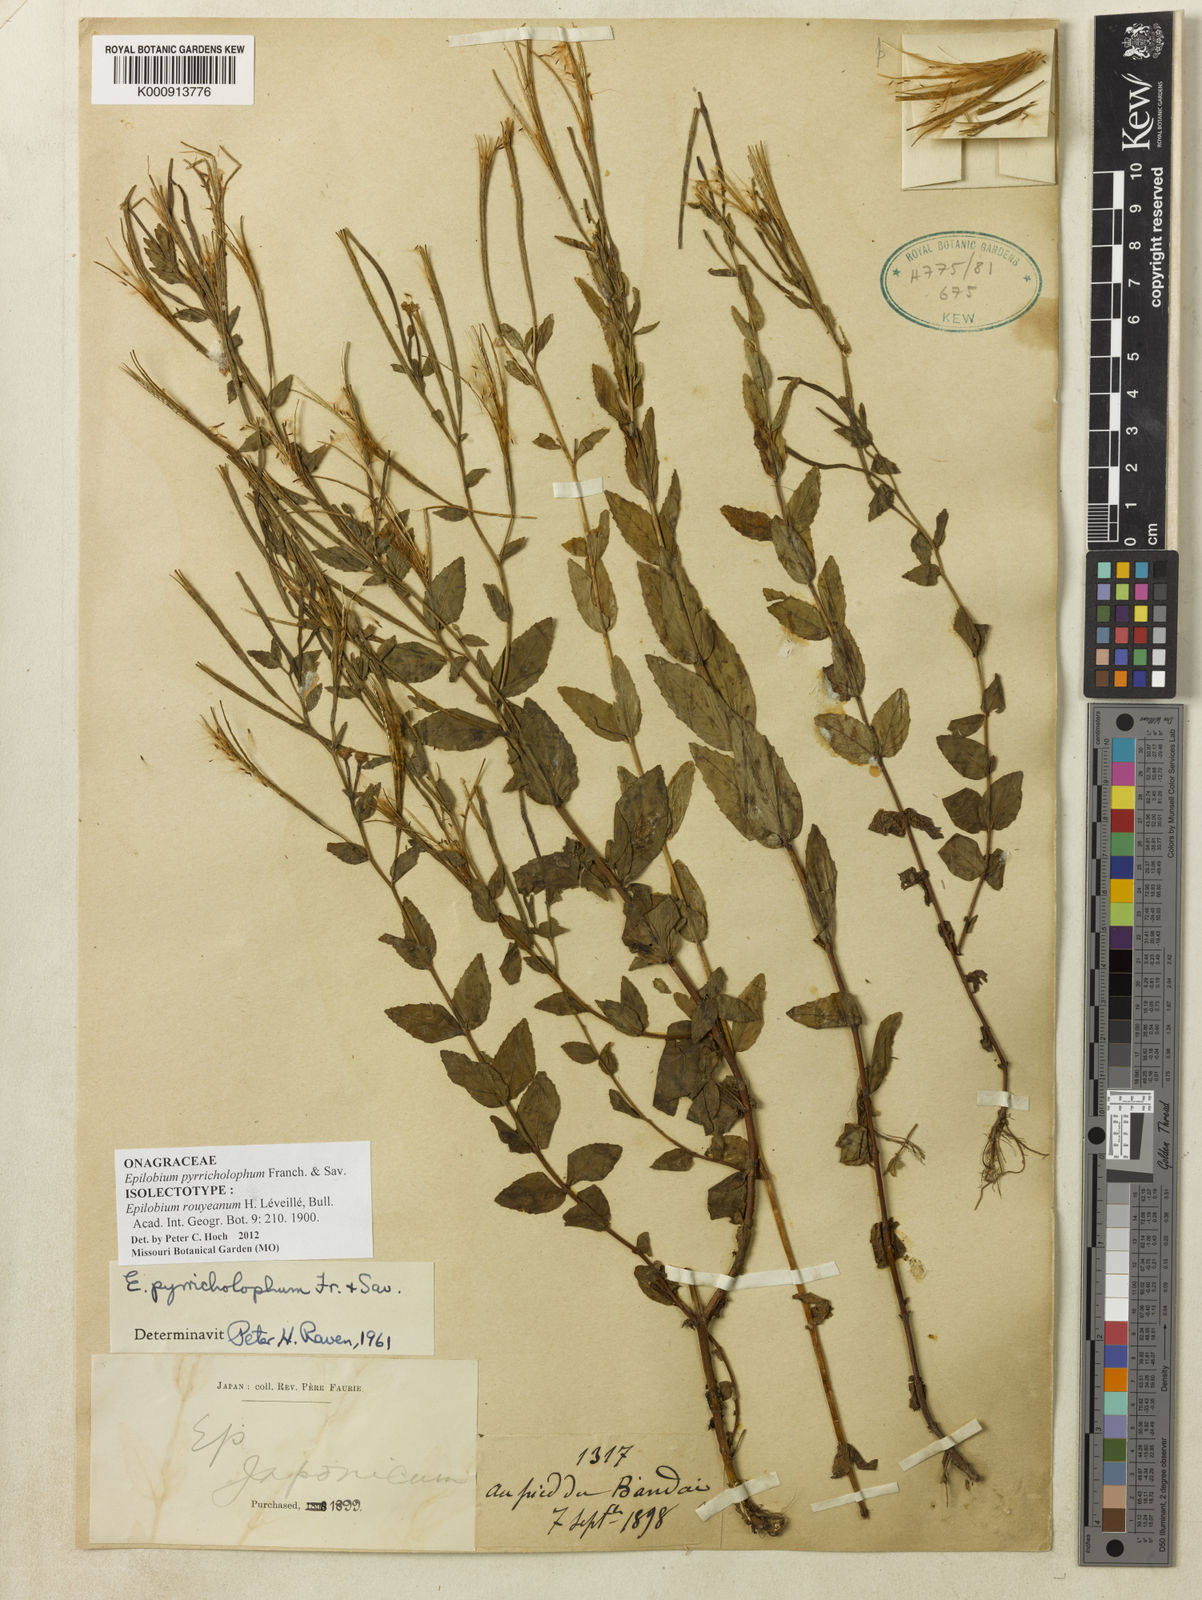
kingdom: Plantae
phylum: Tracheophyta
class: Magnoliopsida
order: Myrtales
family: Onagraceae
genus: Epilobium
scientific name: Epilobium pyrricholophum
